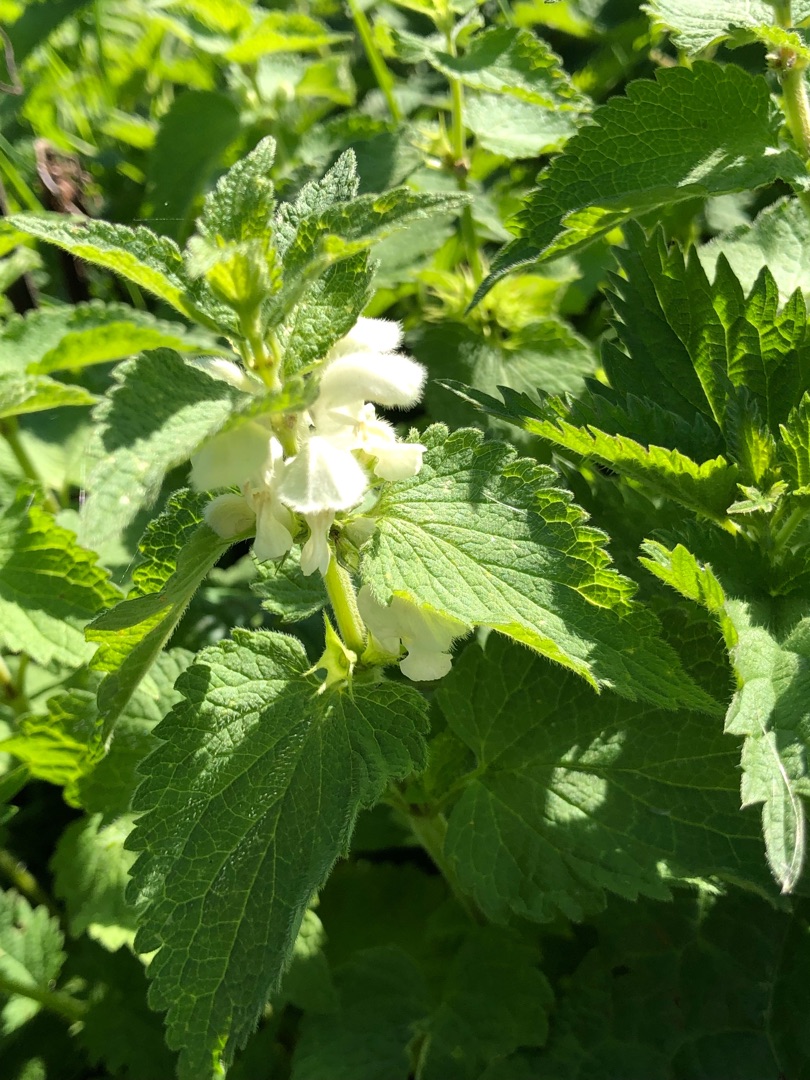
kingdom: Plantae
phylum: Tracheophyta
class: Magnoliopsida
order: Lamiales
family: Lamiaceae
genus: Lamium
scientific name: Lamium album
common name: Døvnælde
